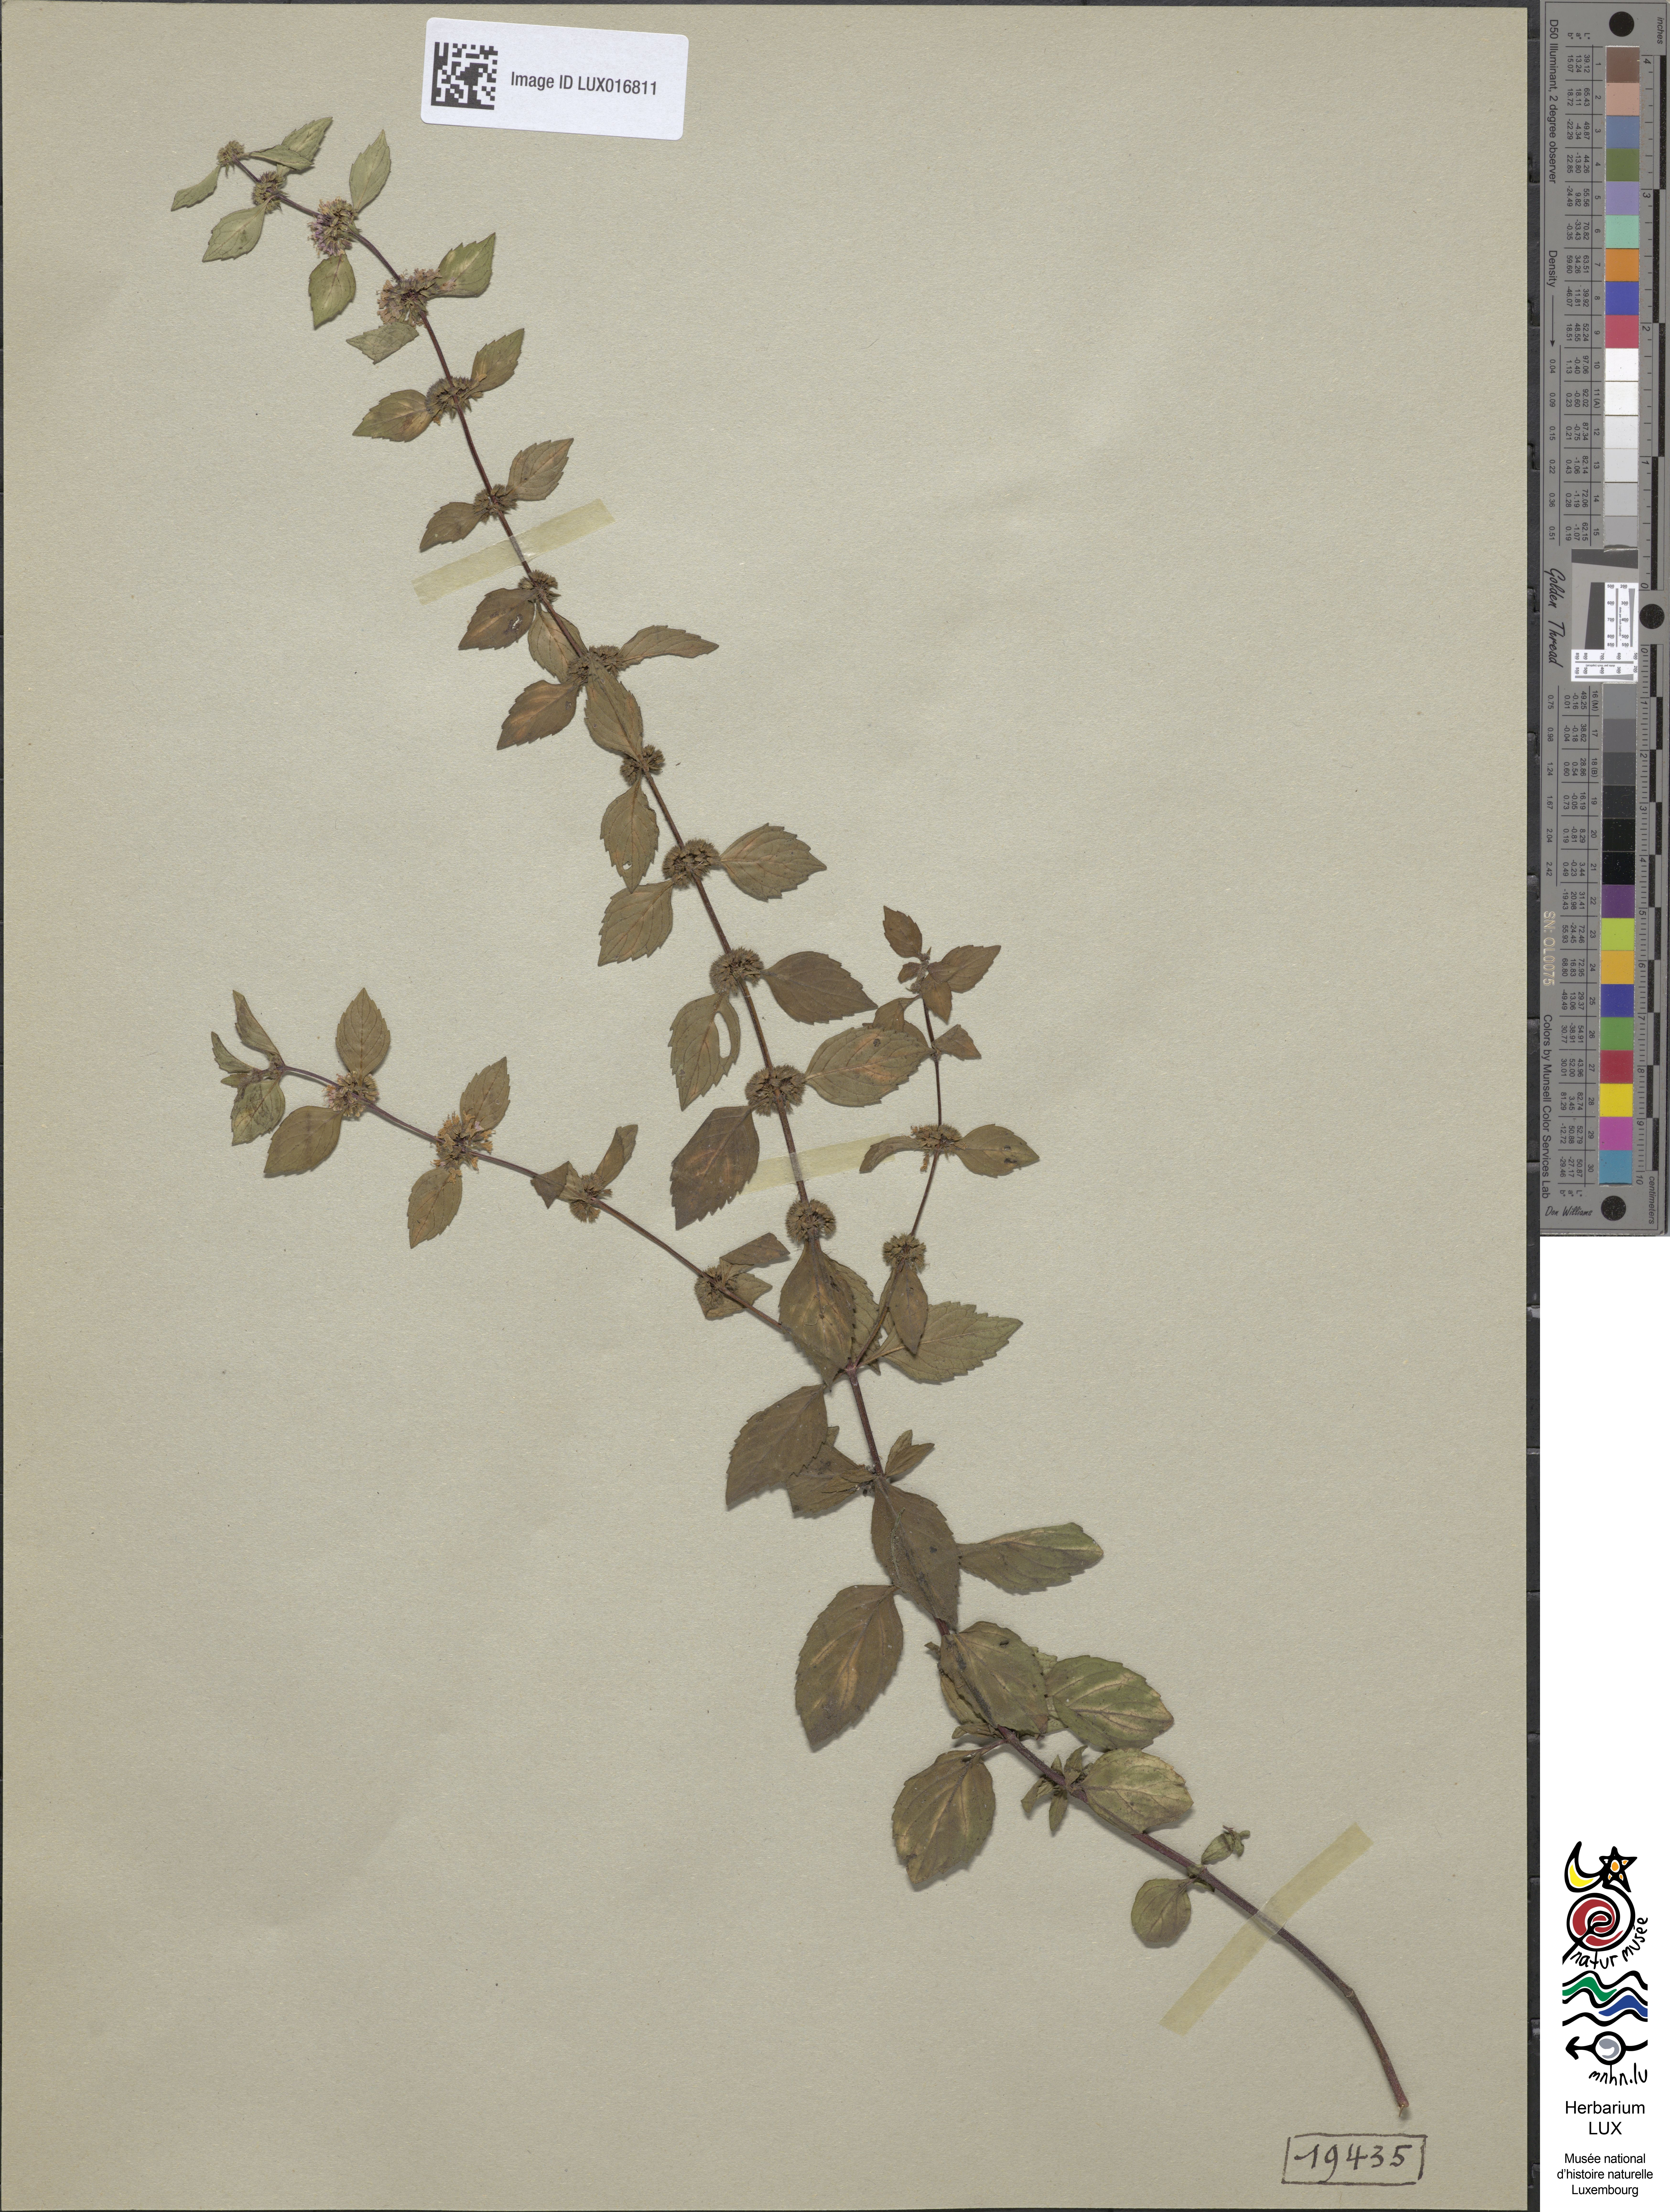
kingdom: Plantae
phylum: Tracheophyta
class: Magnoliopsida
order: Lamiales
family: Lamiaceae
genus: Mentha
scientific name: Mentha arvensis
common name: Corn mint
